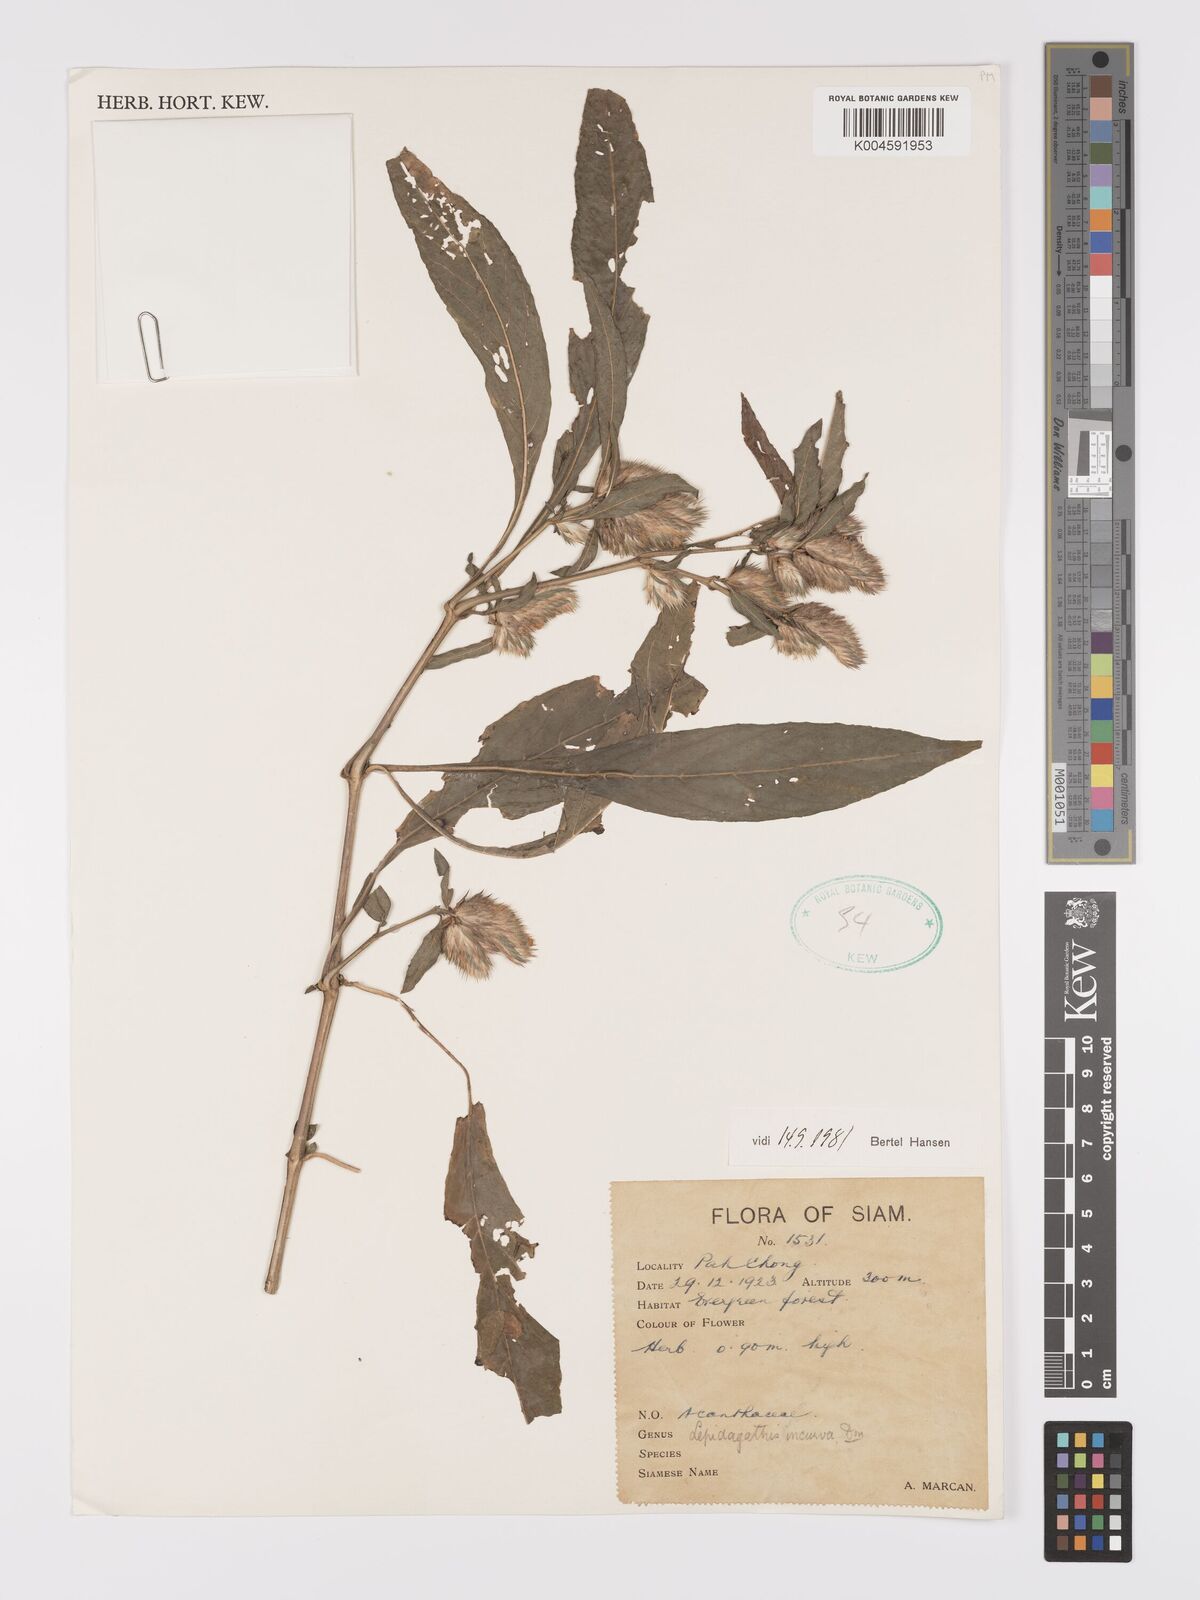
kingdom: Plantae
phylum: Tracheophyta
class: Magnoliopsida
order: Lamiales
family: Acanthaceae
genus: Lepidagathis
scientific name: Lepidagathis incurva
